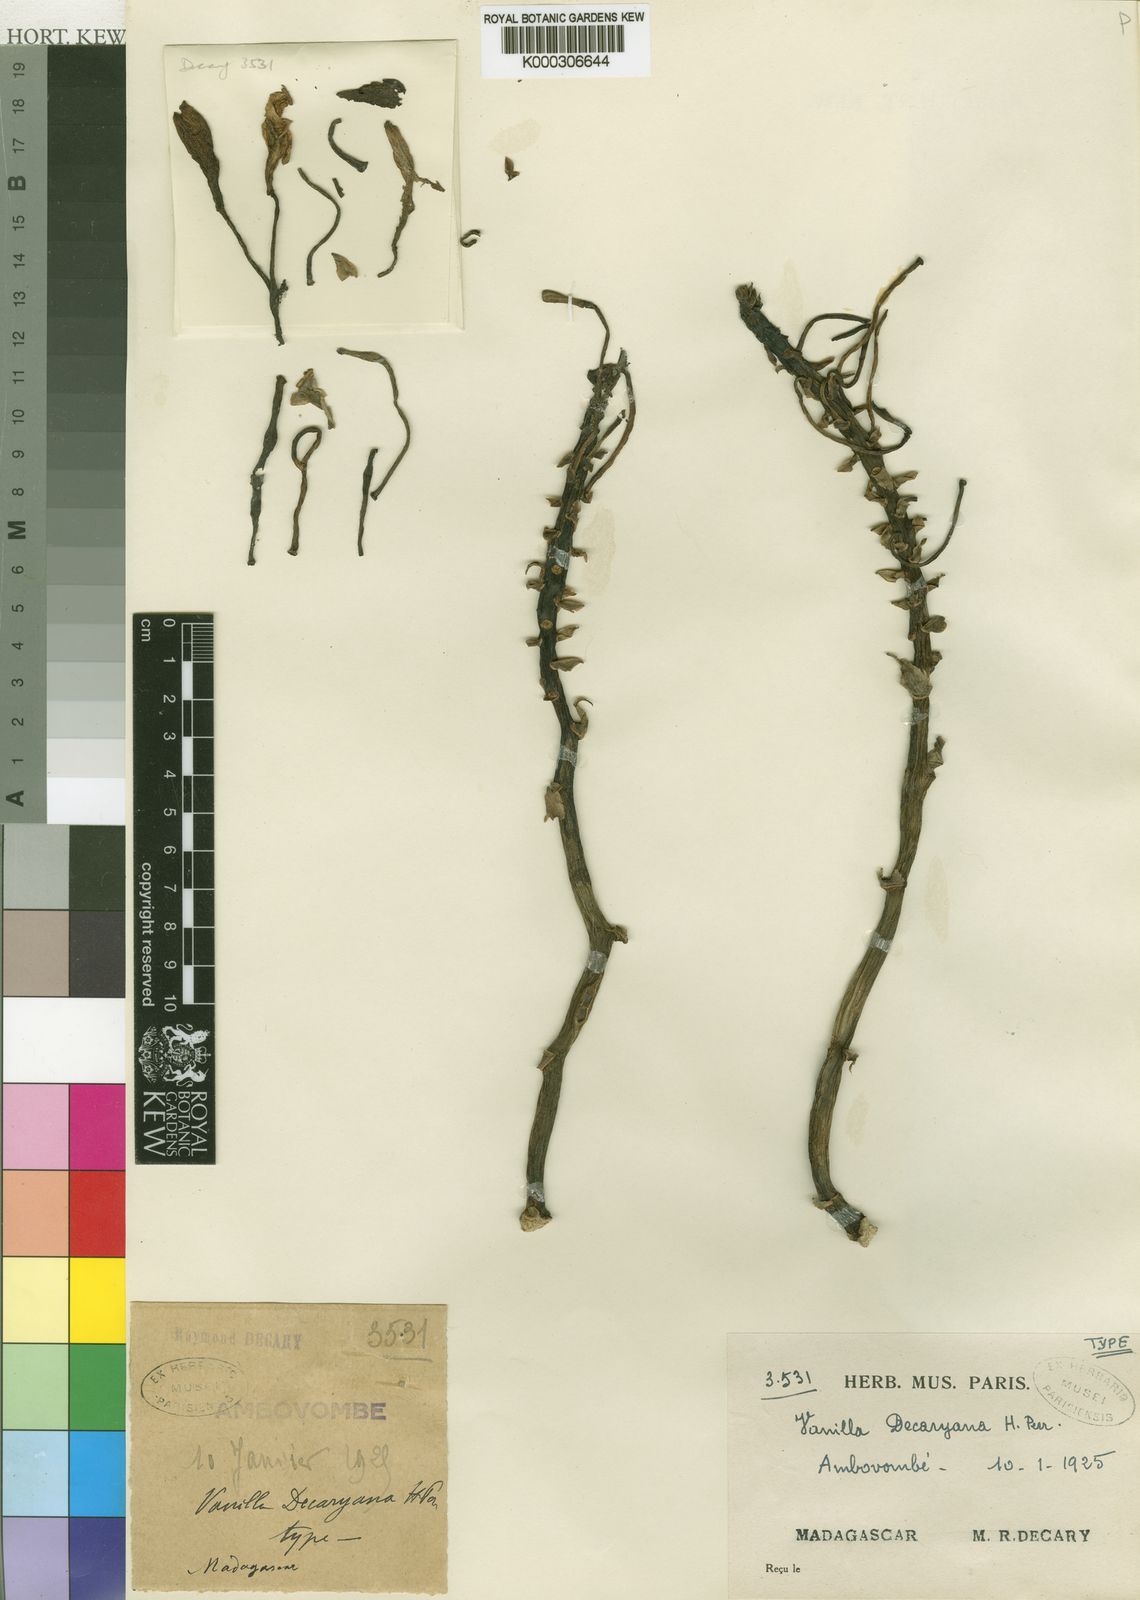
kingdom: Plantae
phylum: Tracheophyta
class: Liliopsida
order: Asparagales
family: Orchidaceae
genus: Vanilla
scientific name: Vanilla decaryana
